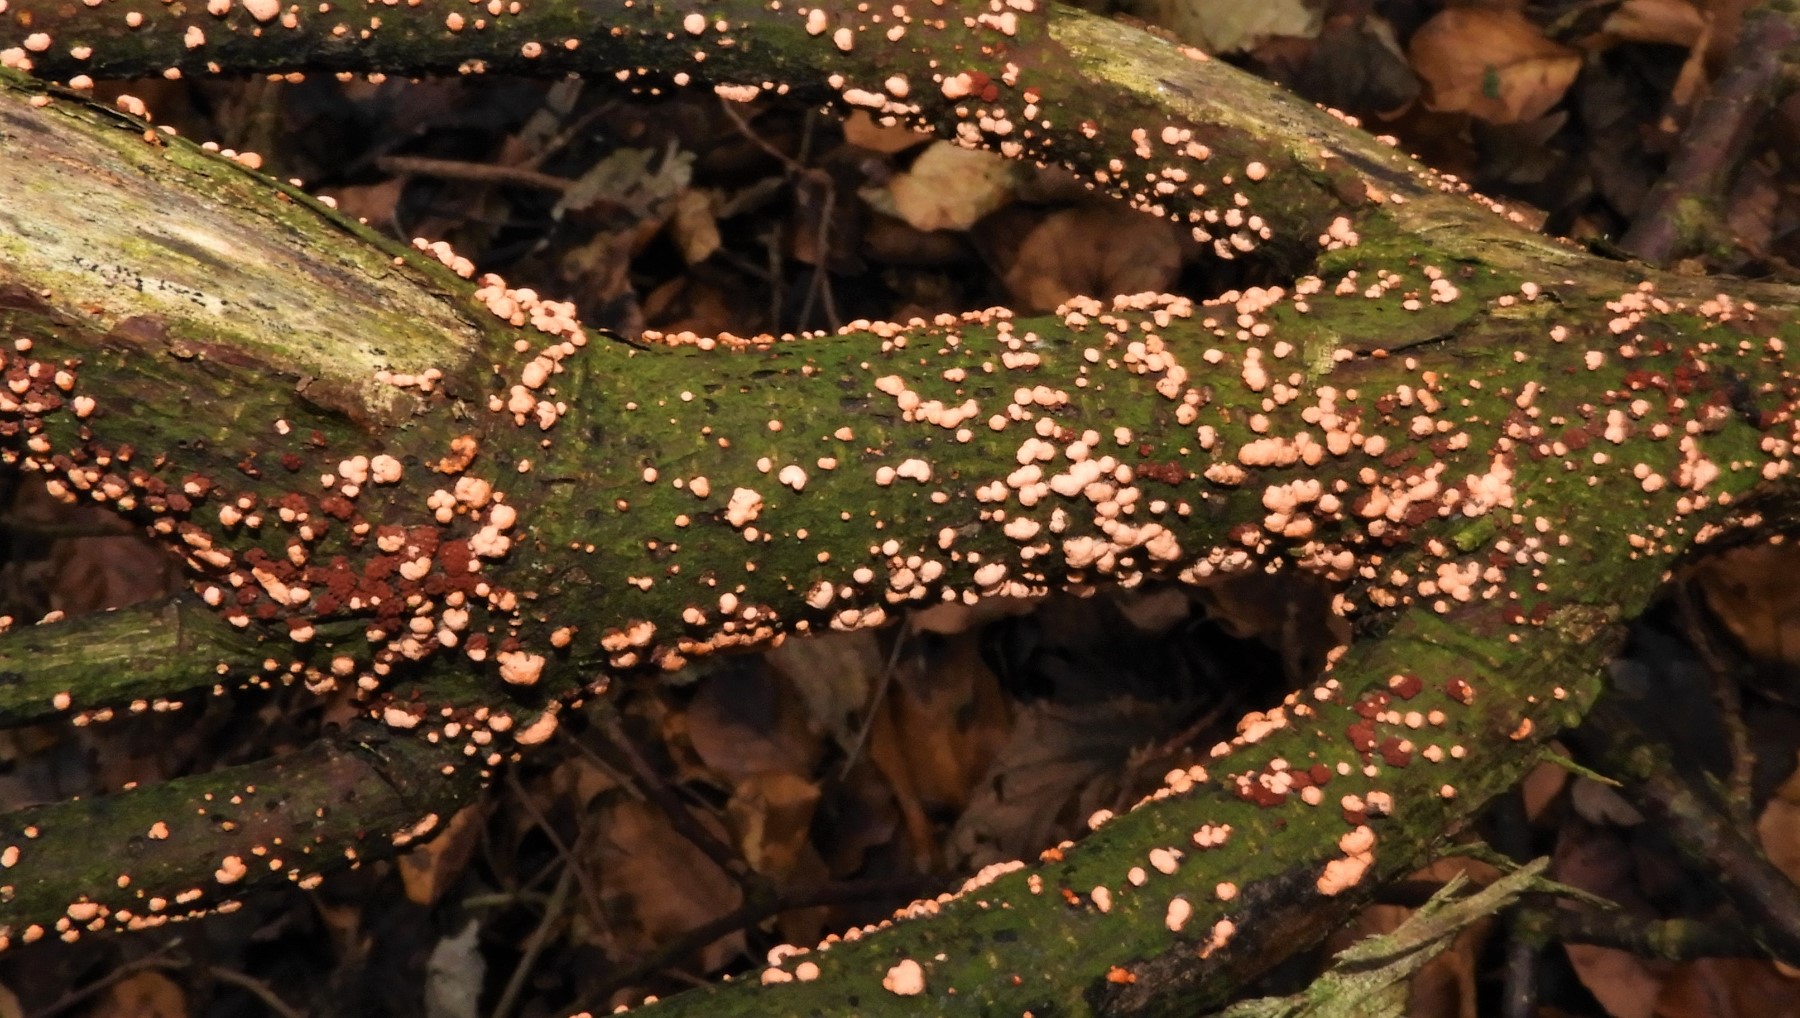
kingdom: Fungi
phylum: Ascomycota
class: Sordariomycetes
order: Hypocreales
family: Nectriaceae
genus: Nectria
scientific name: Nectria cinnabarina
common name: almindelig cinnobersvamp
